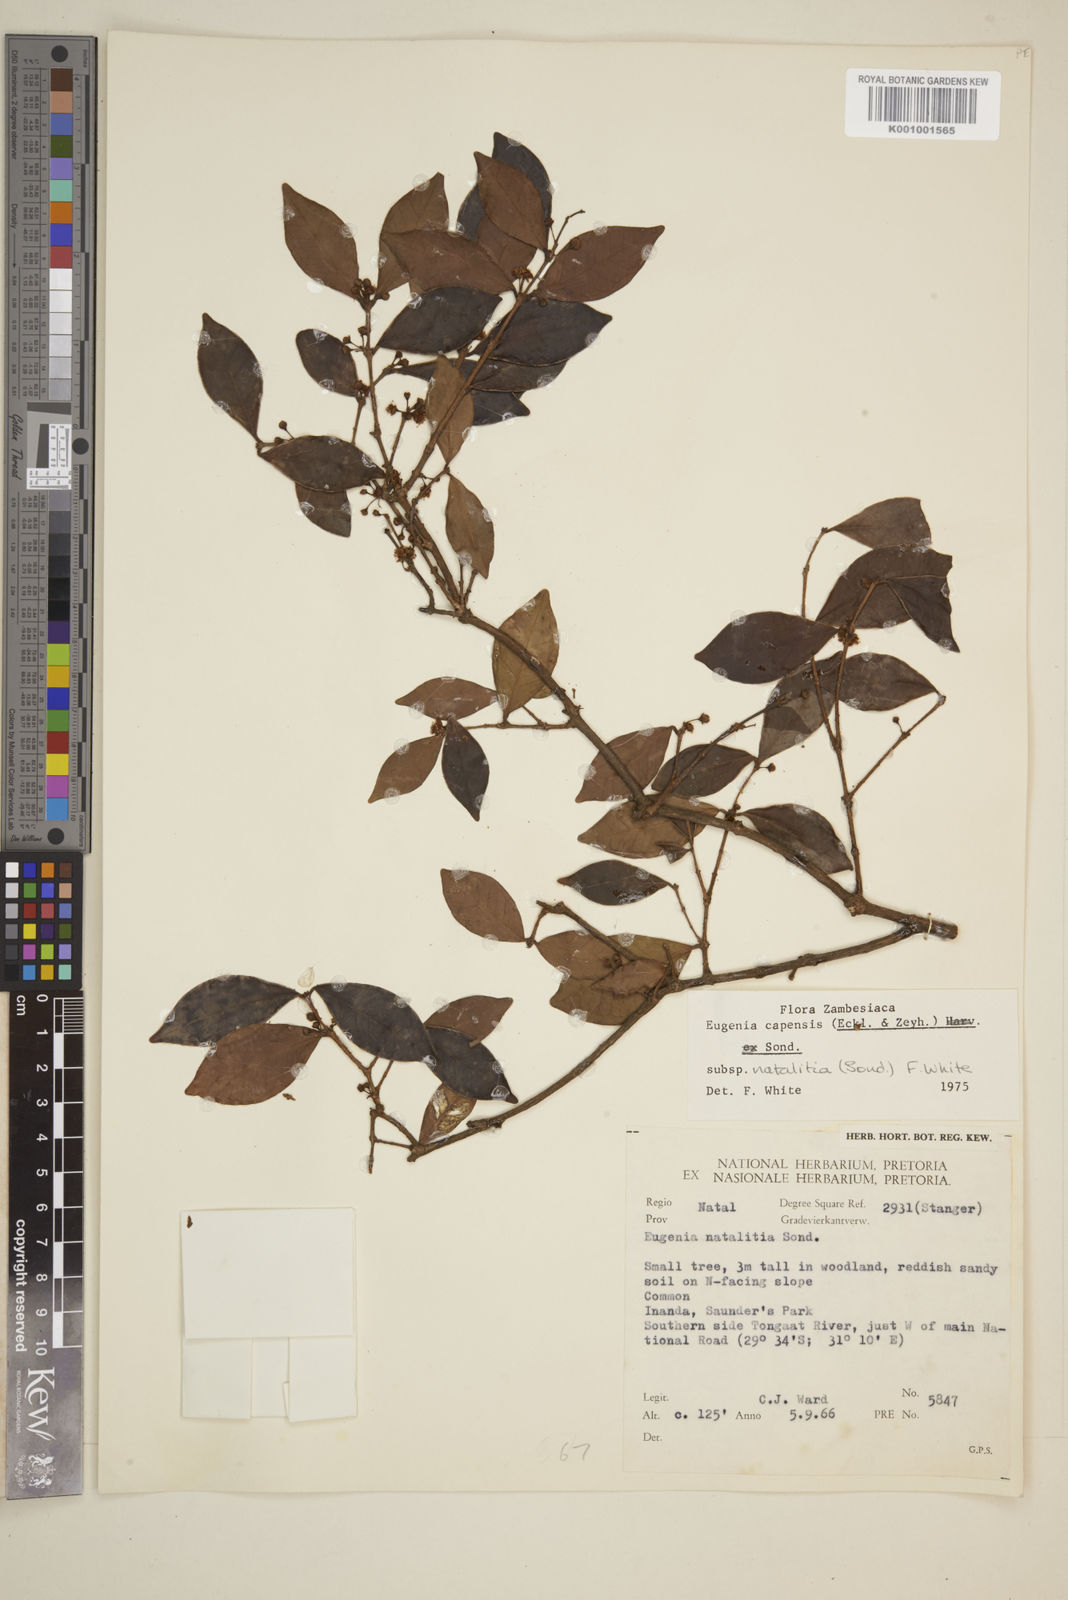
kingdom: Plantae
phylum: Tracheophyta
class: Magnoliopsida
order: Myrtales
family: Myrtaceae
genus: Eugenia
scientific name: Eugenia natalitia
